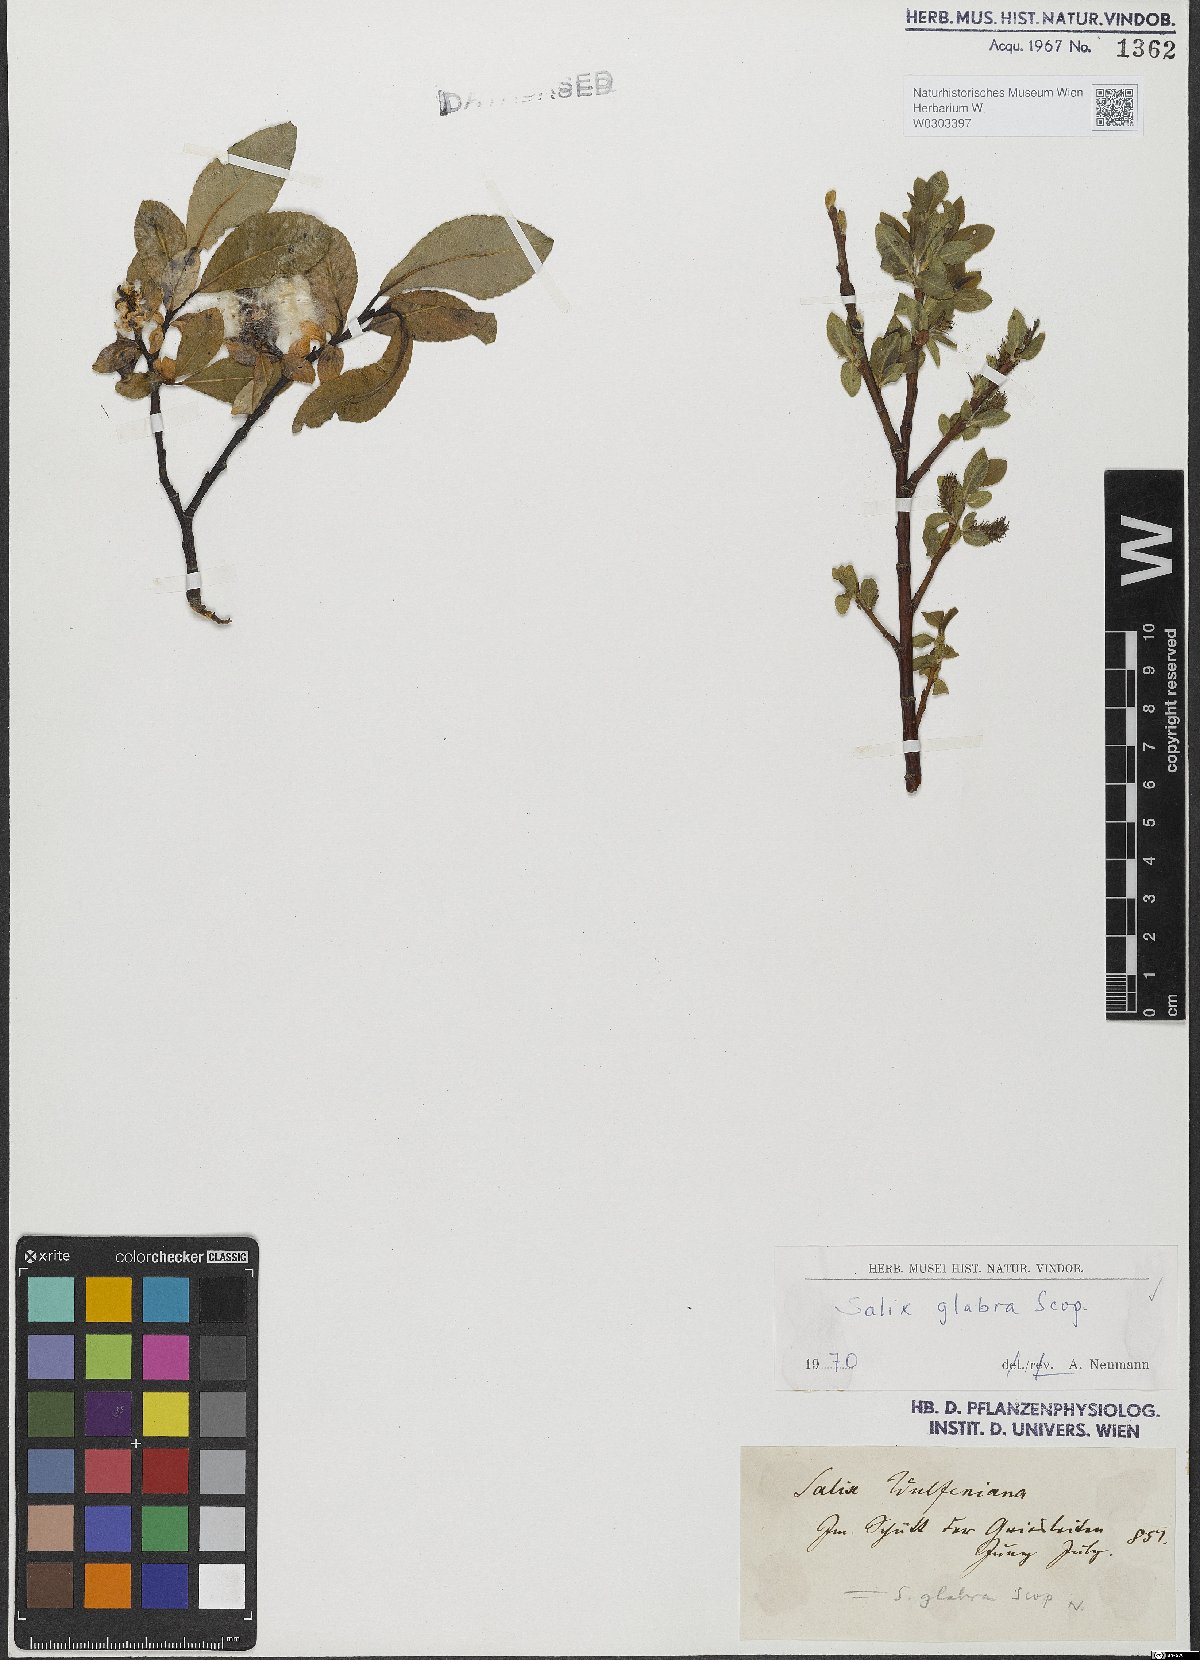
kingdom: Plantae
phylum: Tracheophyta
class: Magnoliopsida
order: Malpighiales
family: Salicaceae
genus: Salix
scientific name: Salix glabra
